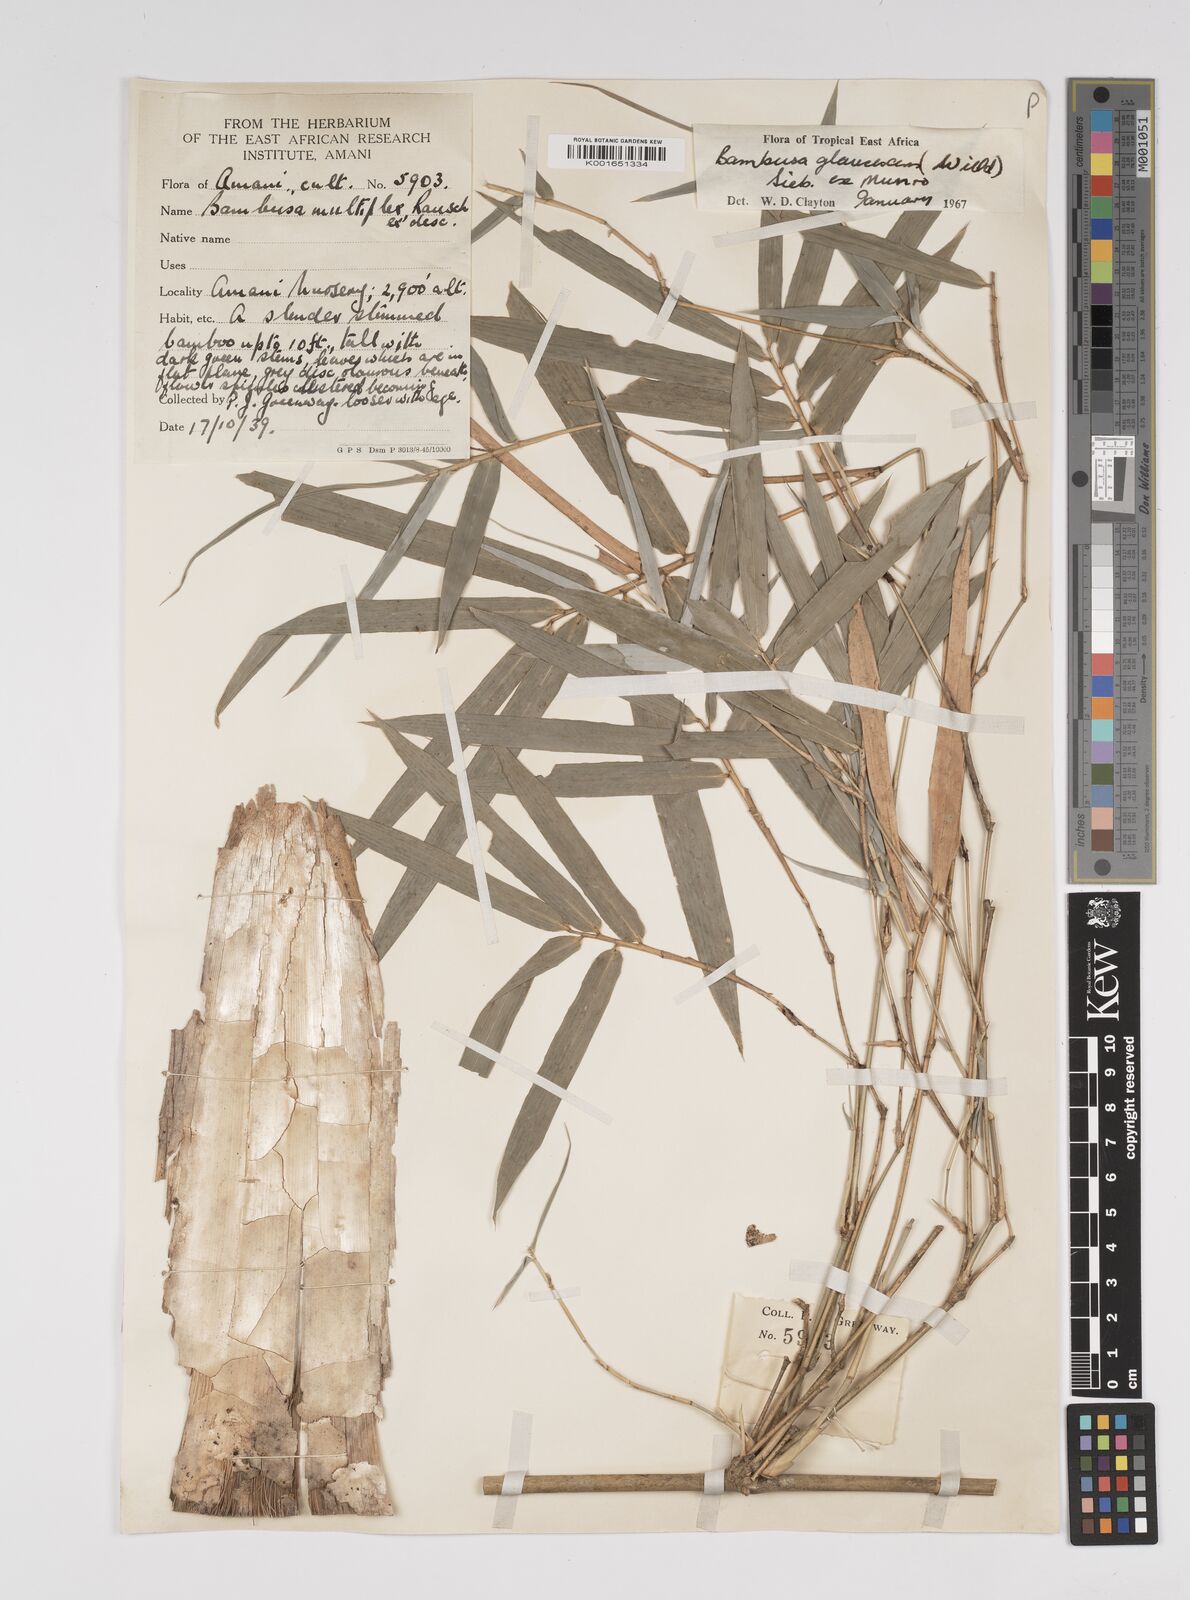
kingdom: Plantae
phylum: Tracheophyta
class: Liliopsida
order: Poales
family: Poaceae
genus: Bambusa
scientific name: Bambusa multiplex
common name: Hedge bamboo
